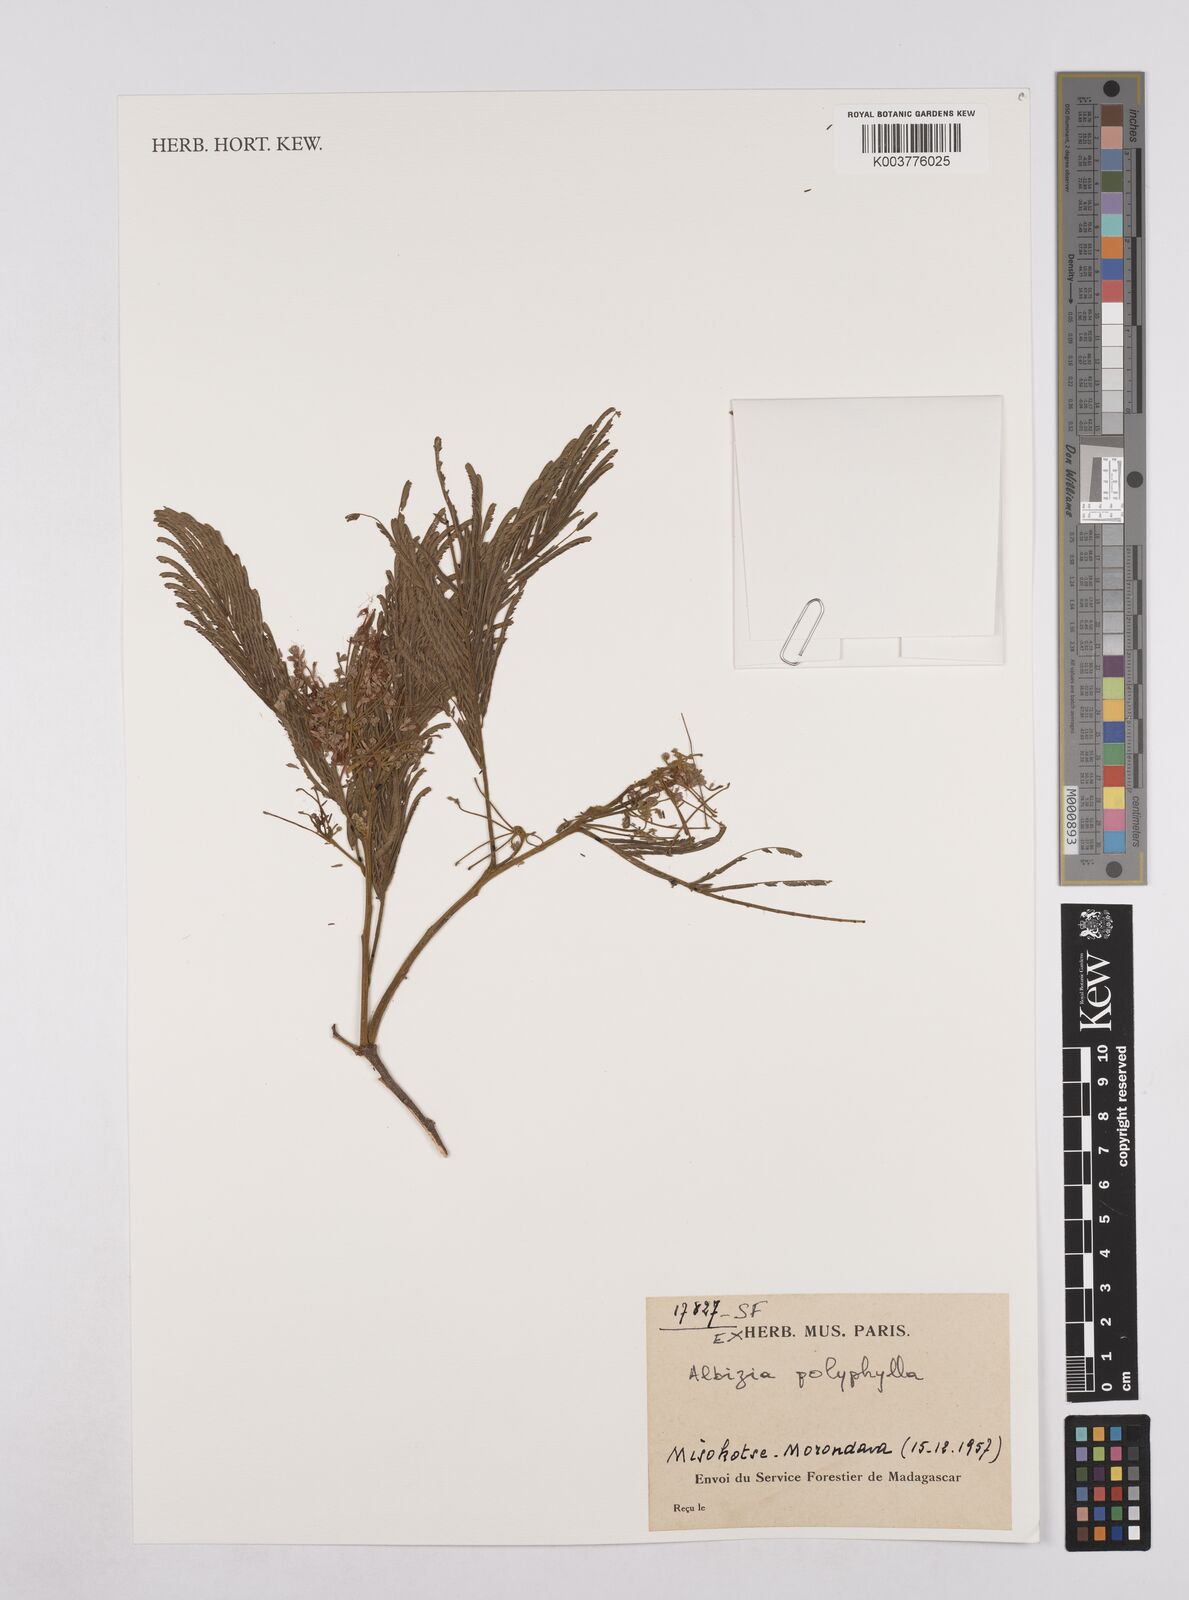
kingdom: Plantae
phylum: Tracheophyta
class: Magnoliopsida
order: Fabales
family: Fabaceae
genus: Albizia
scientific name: Albizia polyphylla
